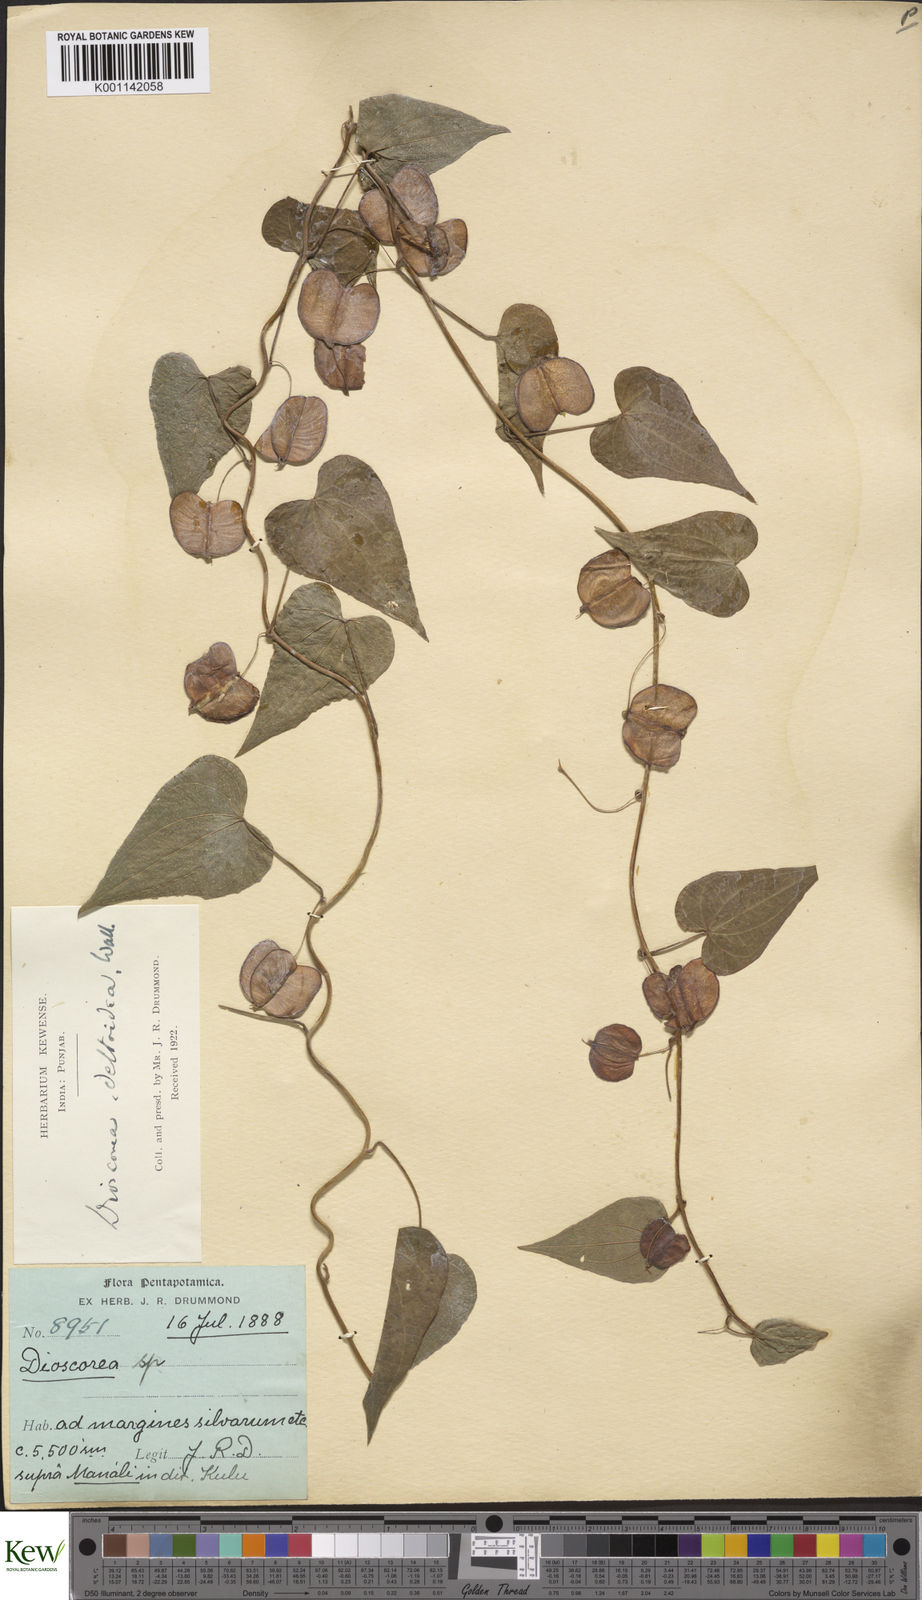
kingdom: Plantae
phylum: Tracheophyta
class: Liliopsida
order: Dioscoreales
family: Dioscoreaceae
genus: Dioscorea
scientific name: Dioscorea deltoidea
